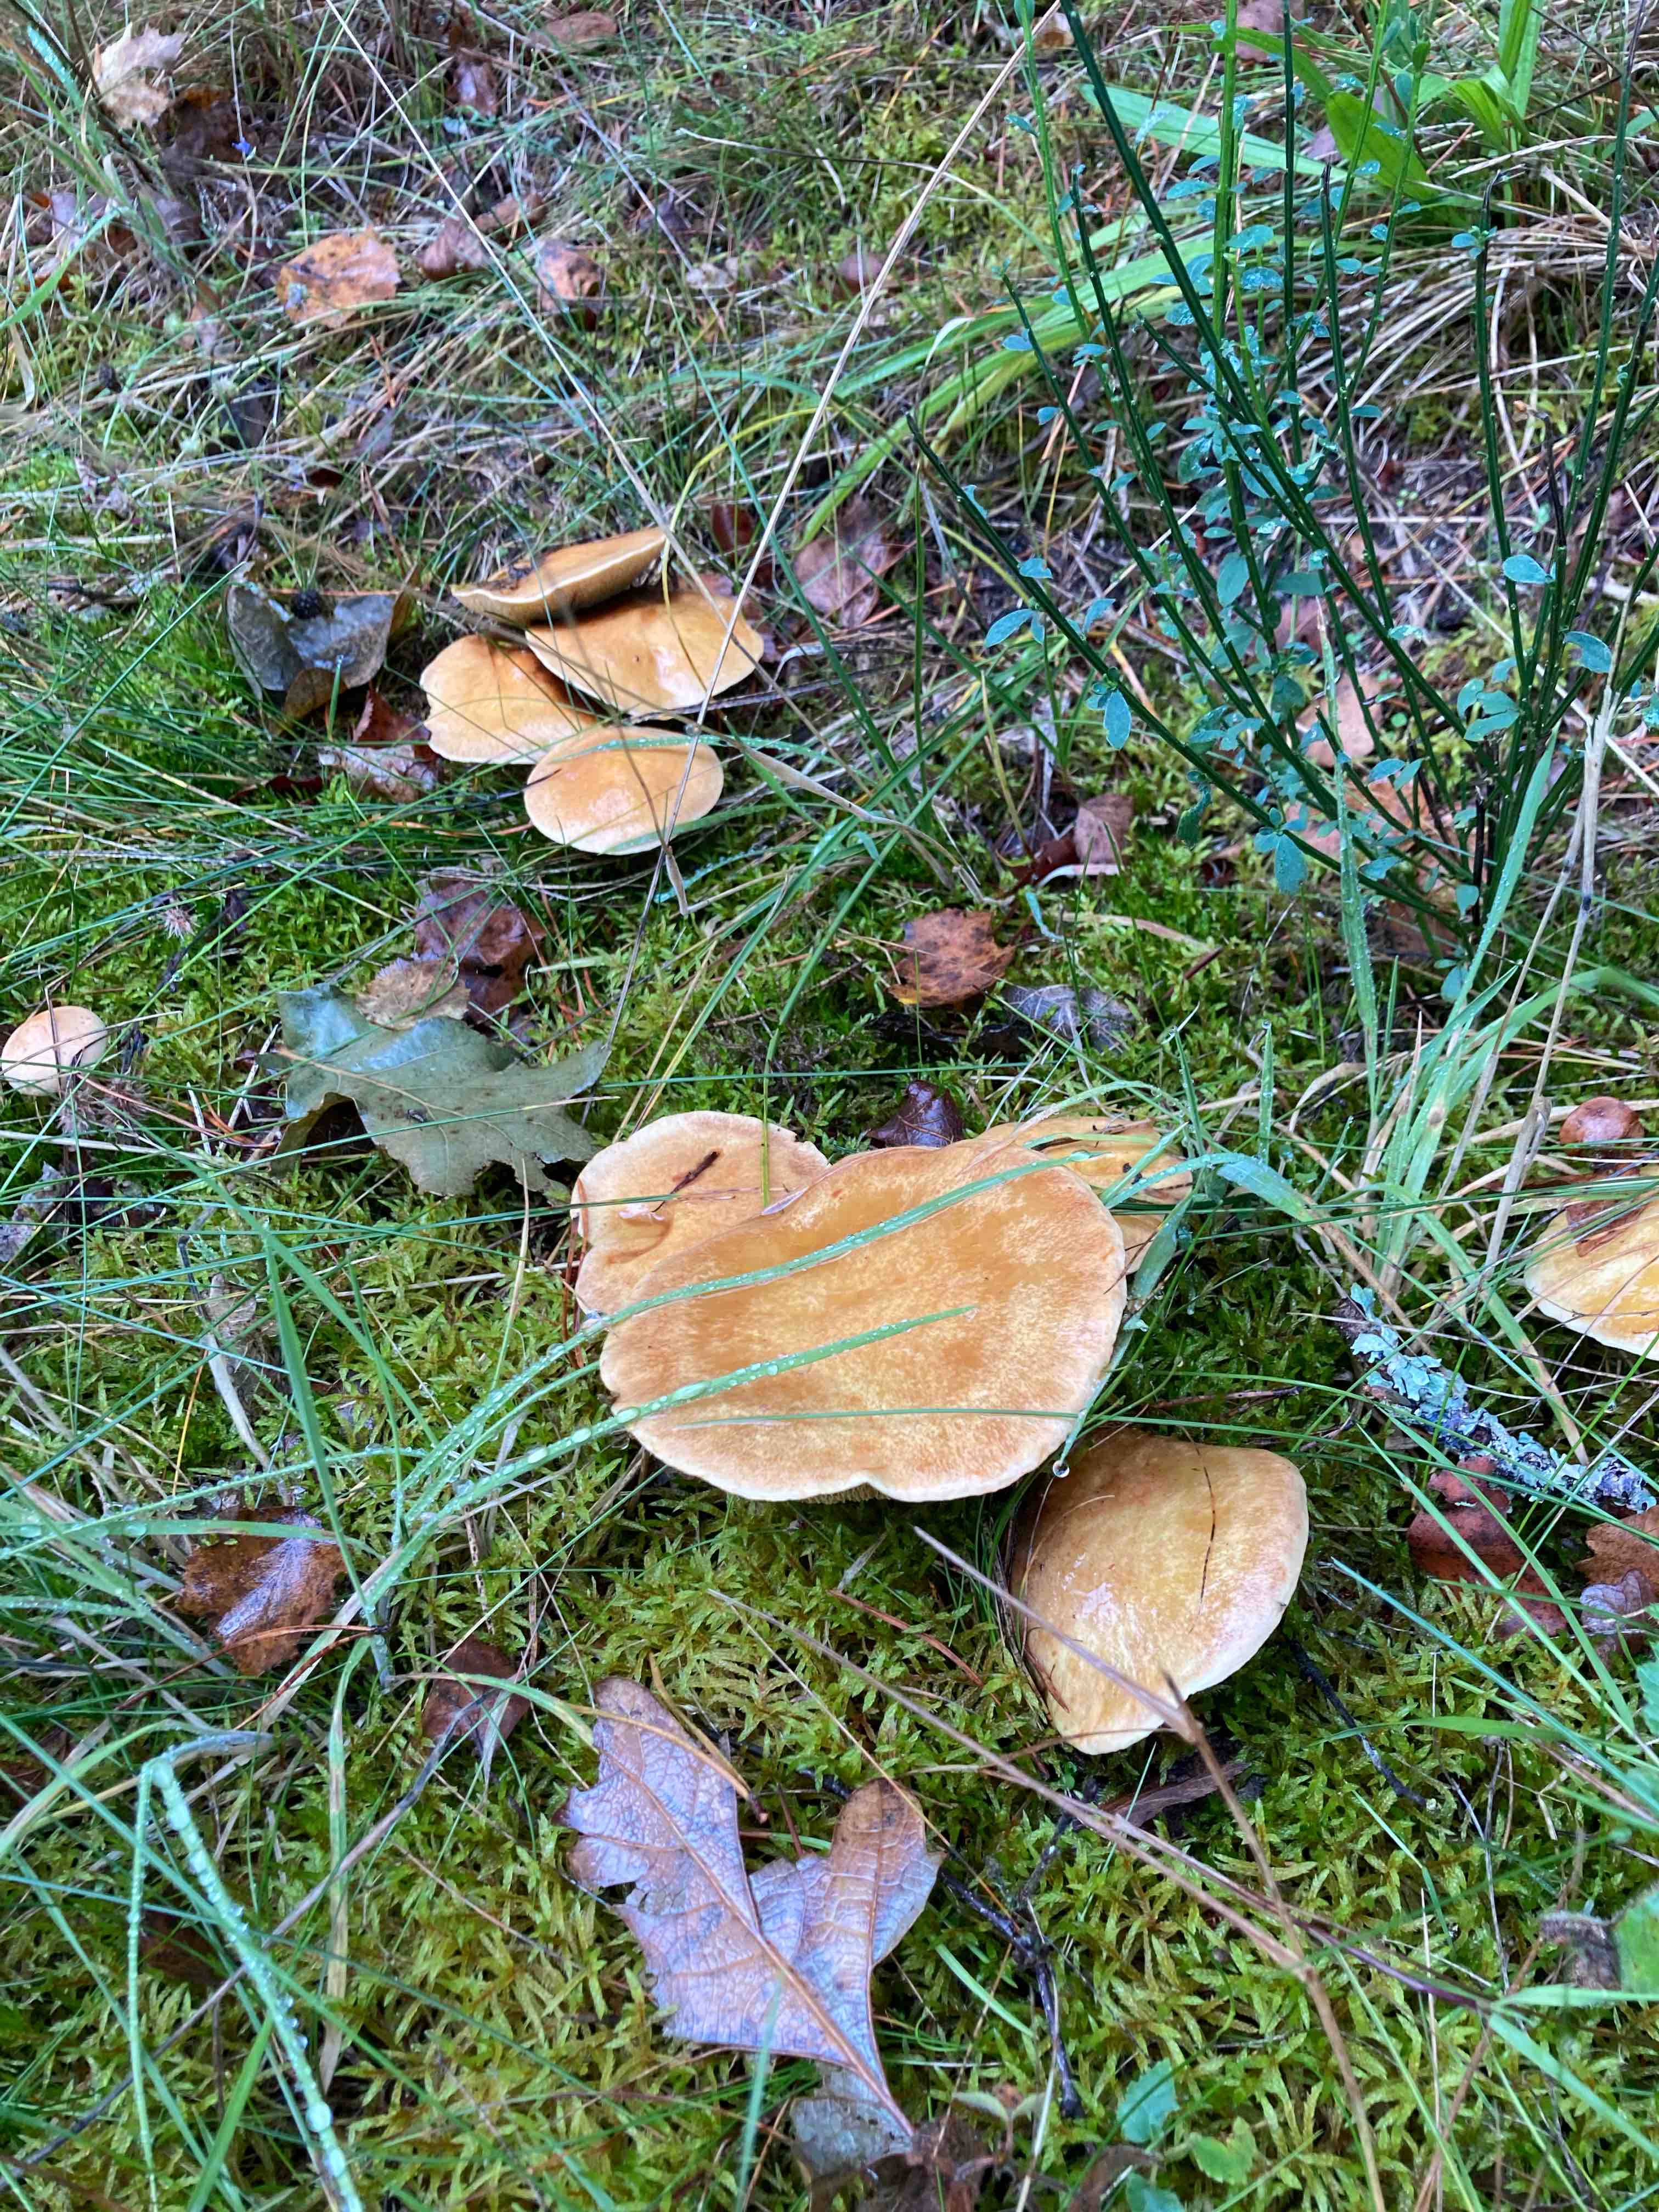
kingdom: Fungi
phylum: Basidiomycota
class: Agaricomycetes
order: Boletales
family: Suillaceae
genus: Suillus
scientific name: Suillus grevillei
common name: lærke-slimrørhat
